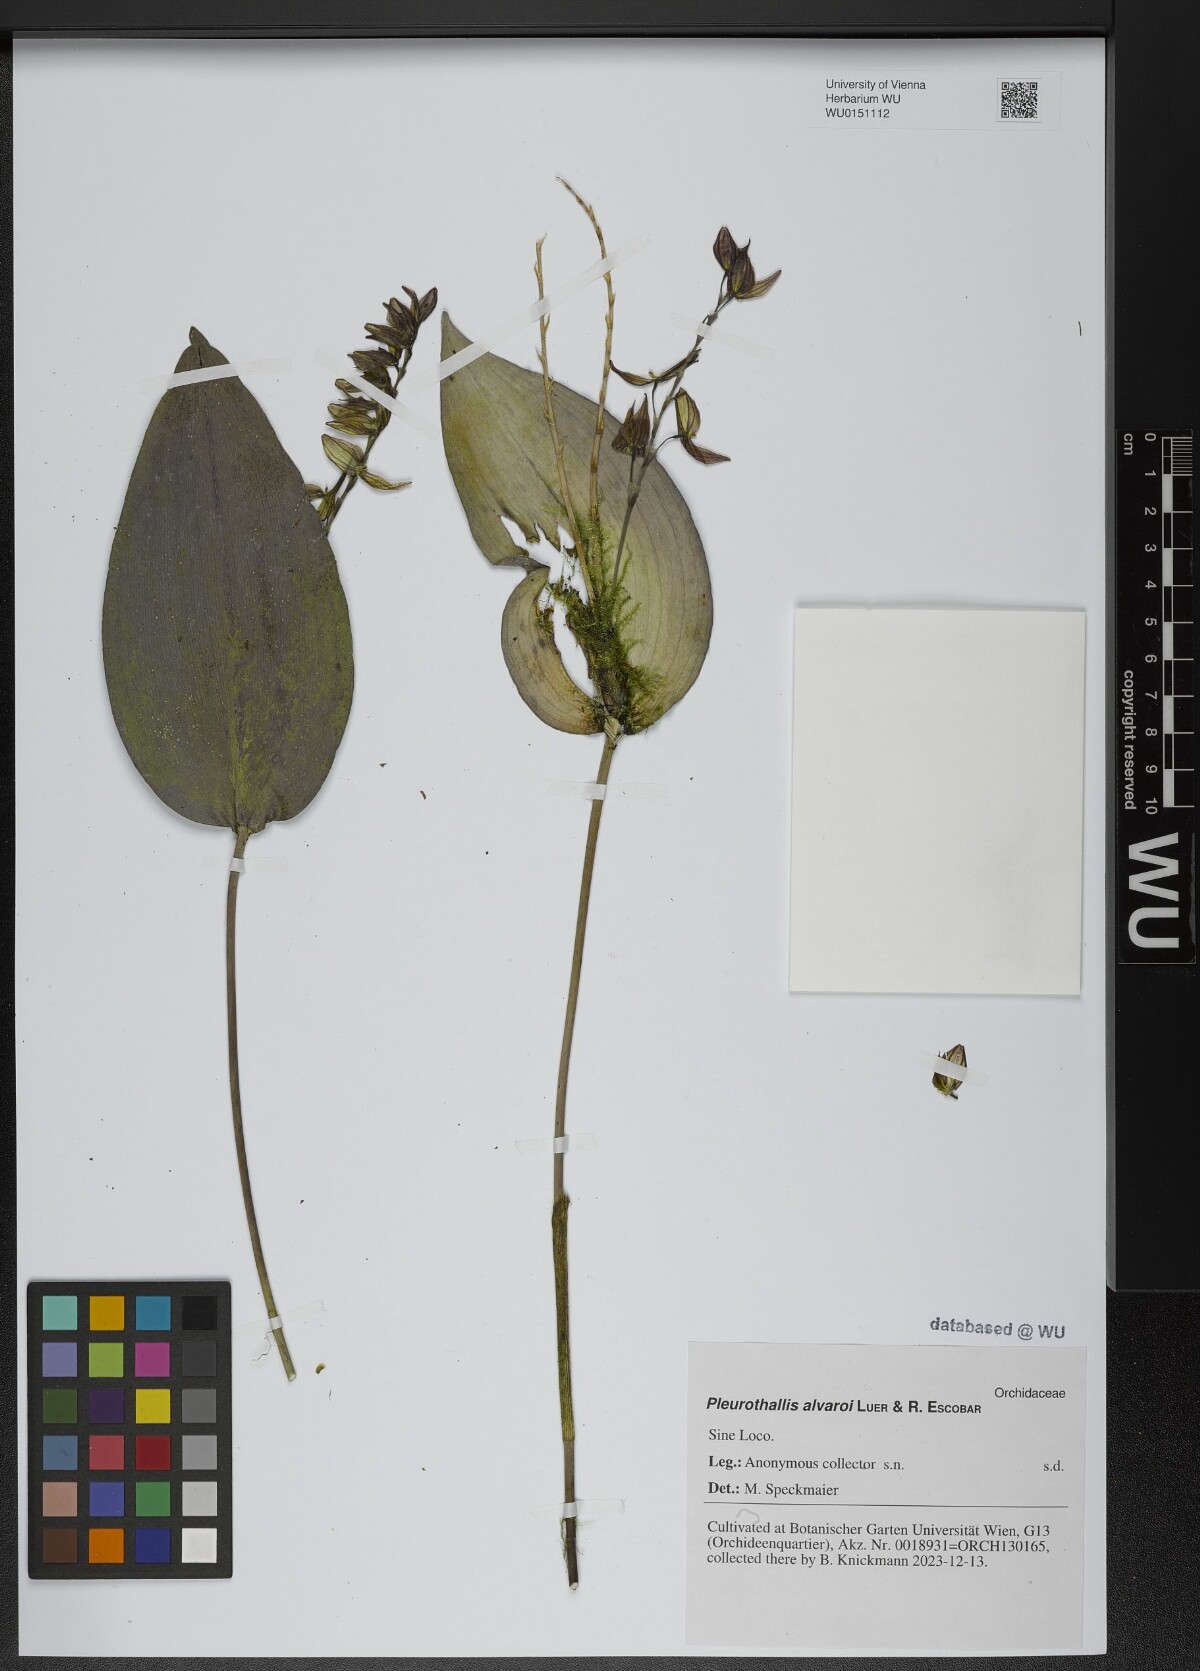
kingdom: Plantae
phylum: Tracheophyta
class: Liliopsida
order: Asparagales
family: Orchidaceae
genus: Pleurothallis
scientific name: Pleurothallis alvaroi
